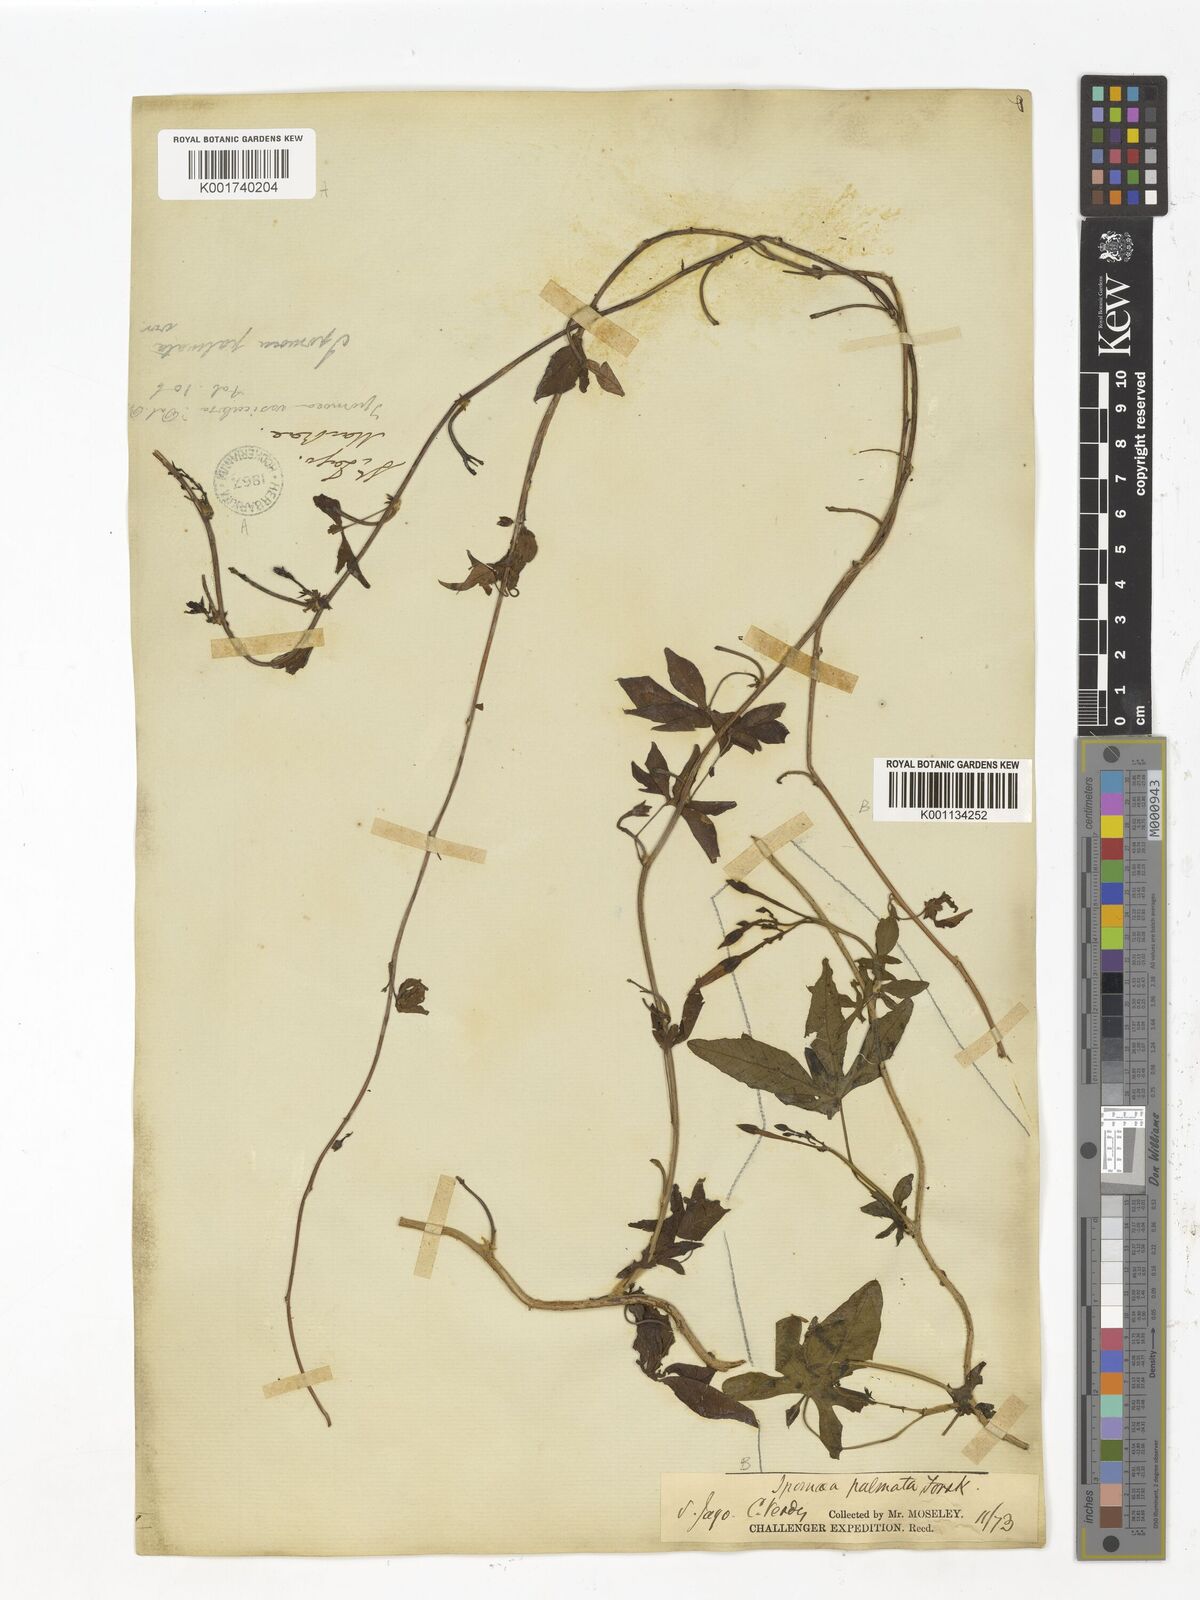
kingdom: Plantae
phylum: Tracheophyta
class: Magnoliopsida
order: Solanales
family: Convolvulaceae
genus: Ipomoea
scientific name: Ipomoea cairica
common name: Mile a minute vine
